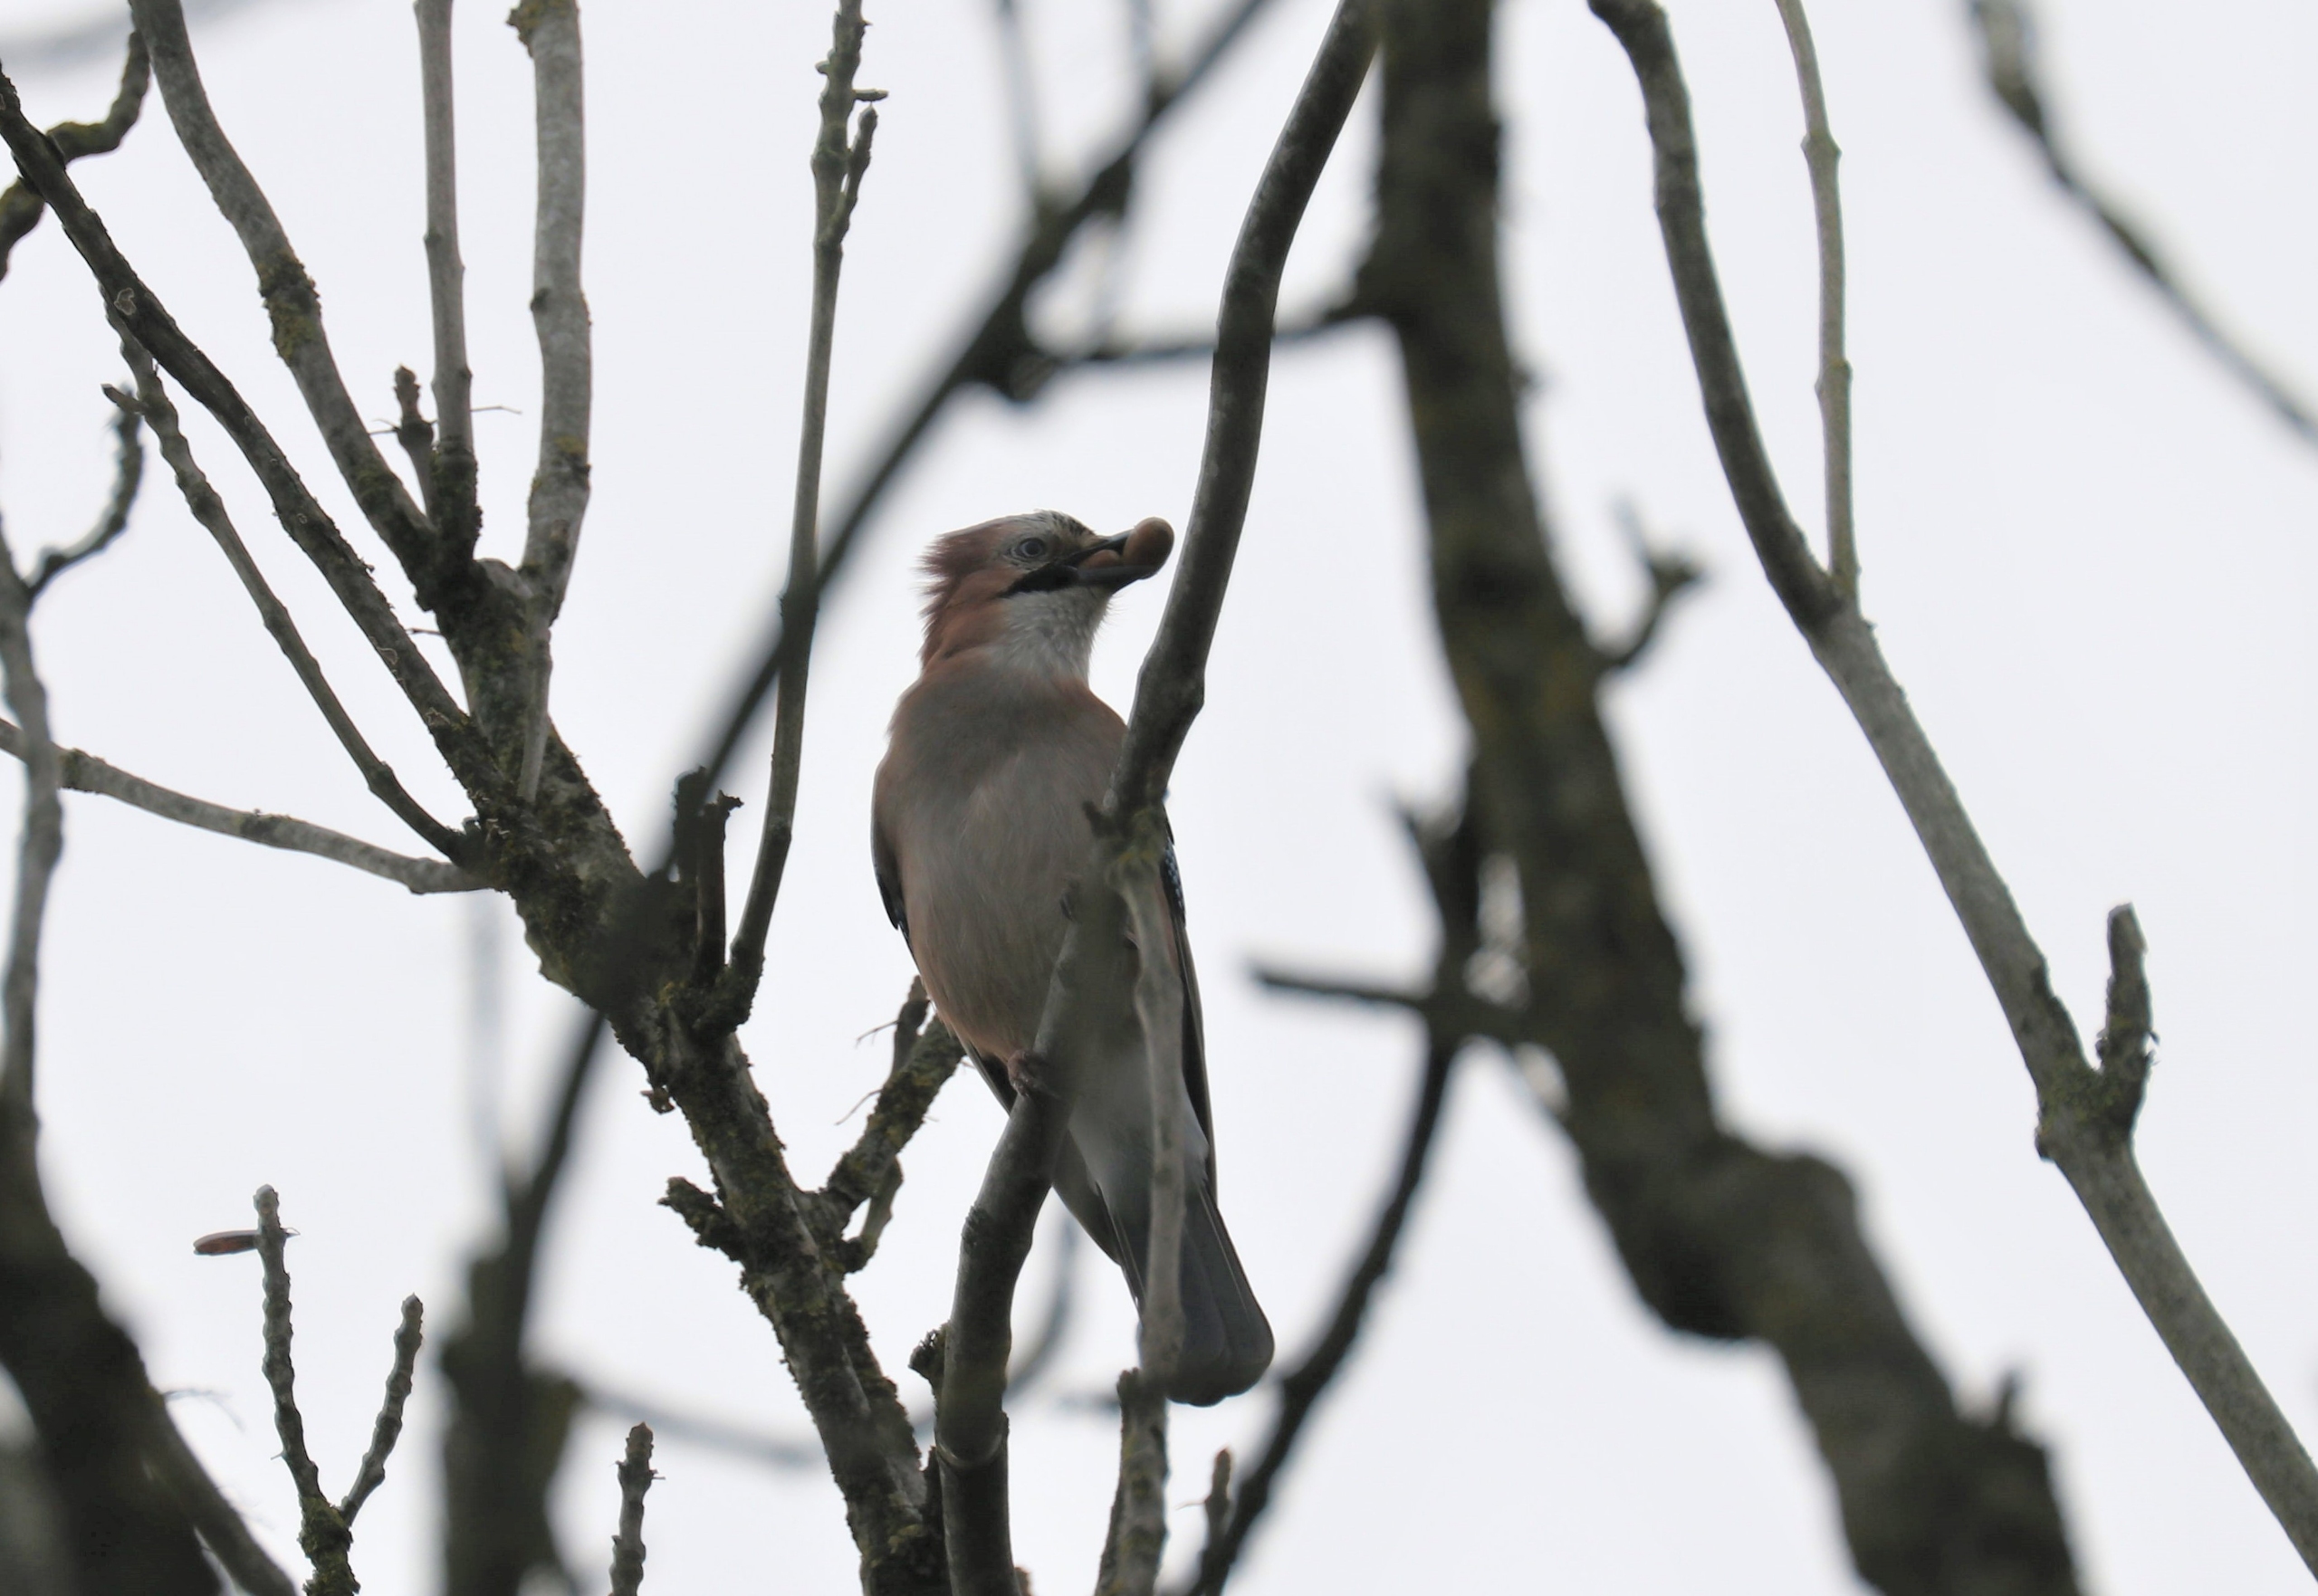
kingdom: Animalia
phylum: Chordata
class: Aves
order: Passeriformes
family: Corvidae
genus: Garrulus
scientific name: Garrulus glandarius
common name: Skovskade
